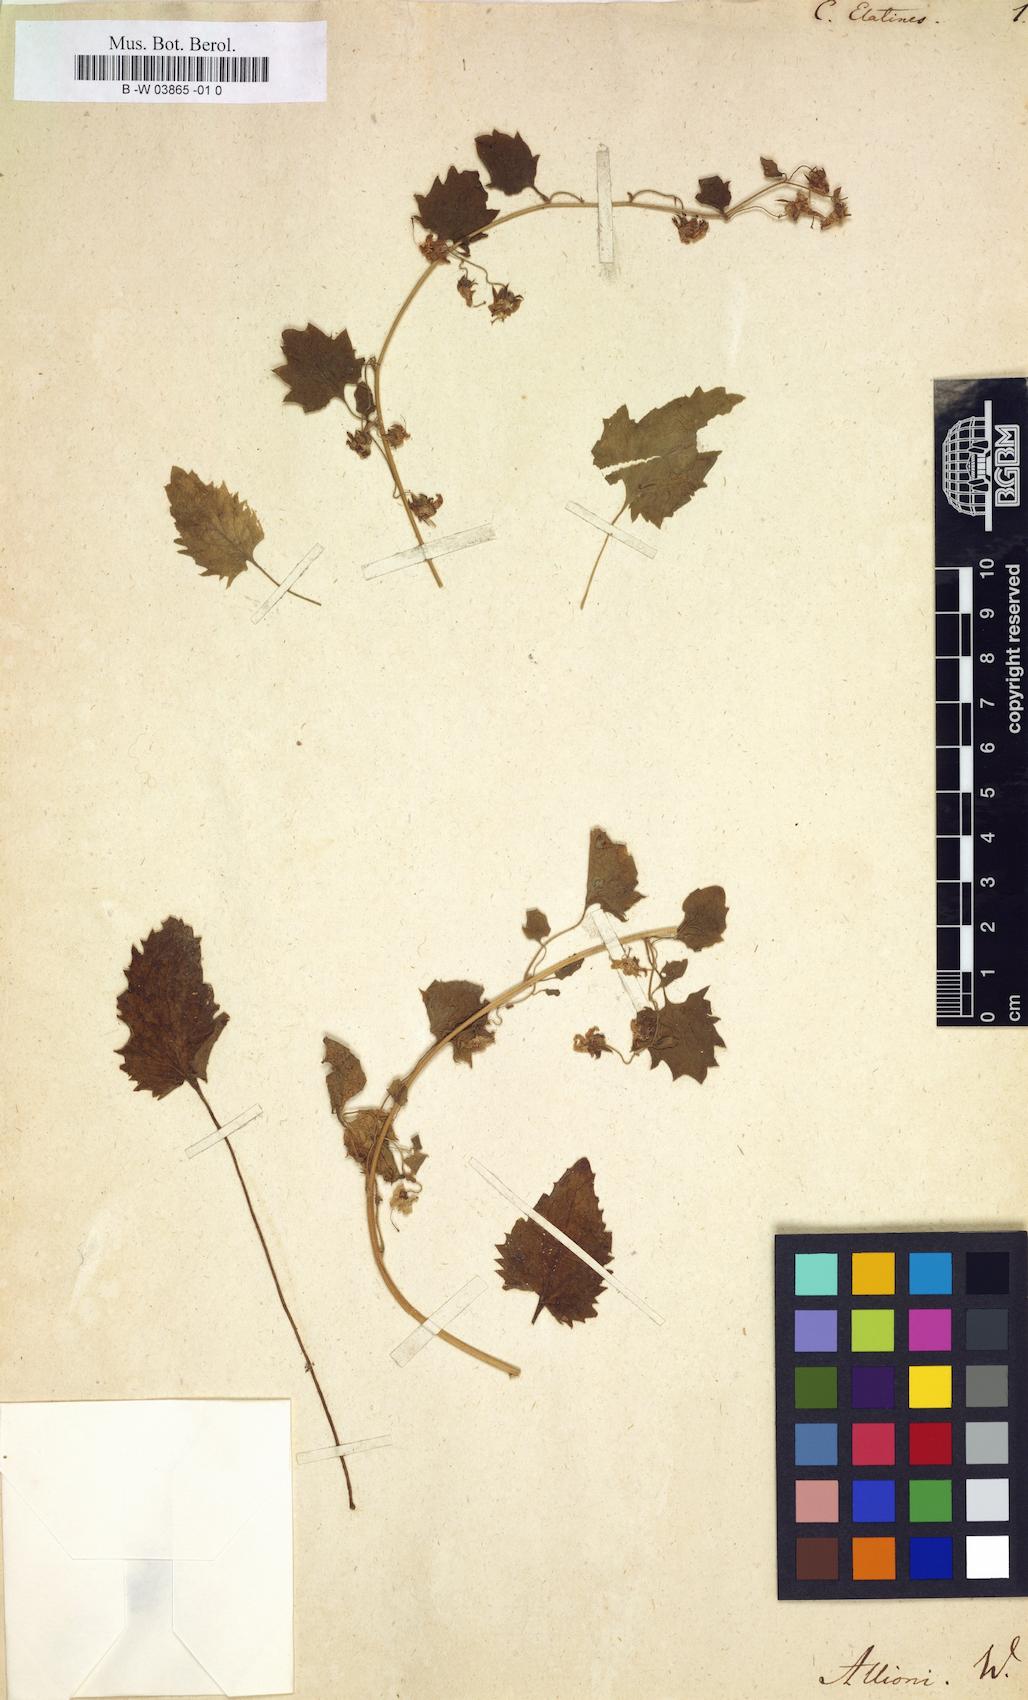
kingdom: Plantae
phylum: Tracheophyta
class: Magnoliopsida
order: Asterales
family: Campanulaceae
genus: Campanula
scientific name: Campanula elatines
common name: Adriatic bellflower
